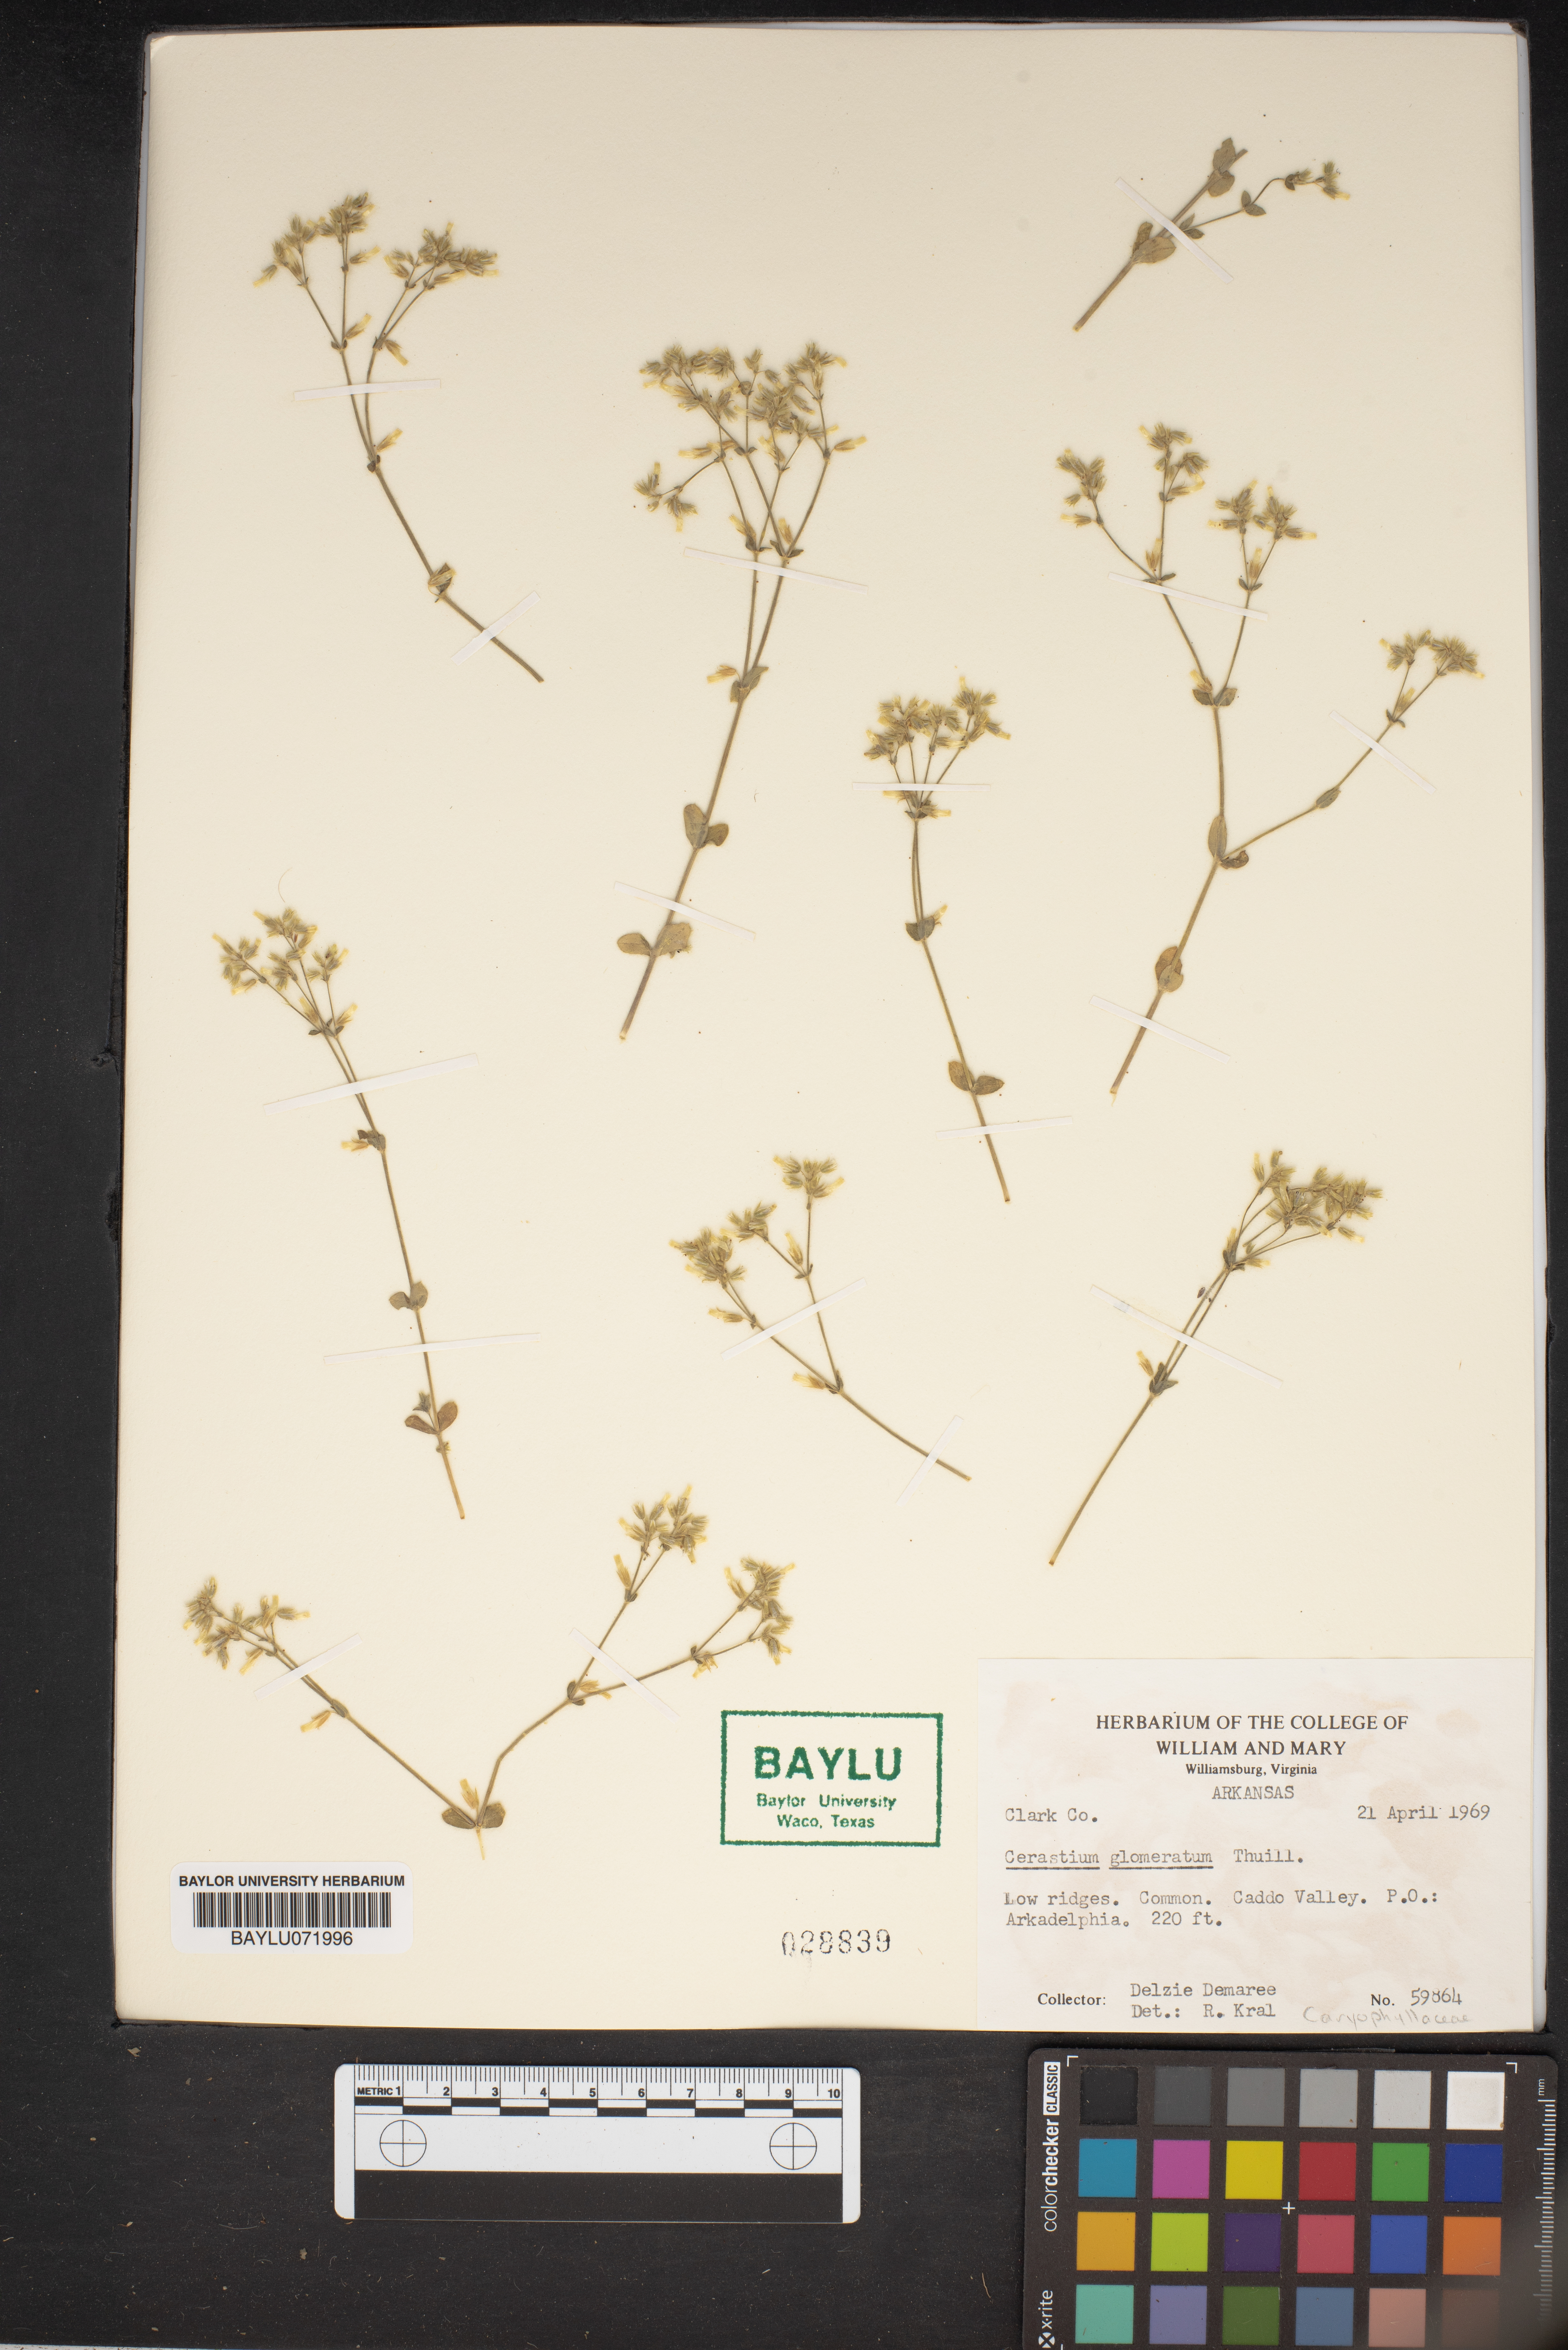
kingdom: Plantae
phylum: Tracheophyta
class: Magnoliopsida
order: Caryophyllales
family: Caryophyllaceae
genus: Cerastium
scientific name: Cerastium glomeratum
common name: Sticky chickweed
